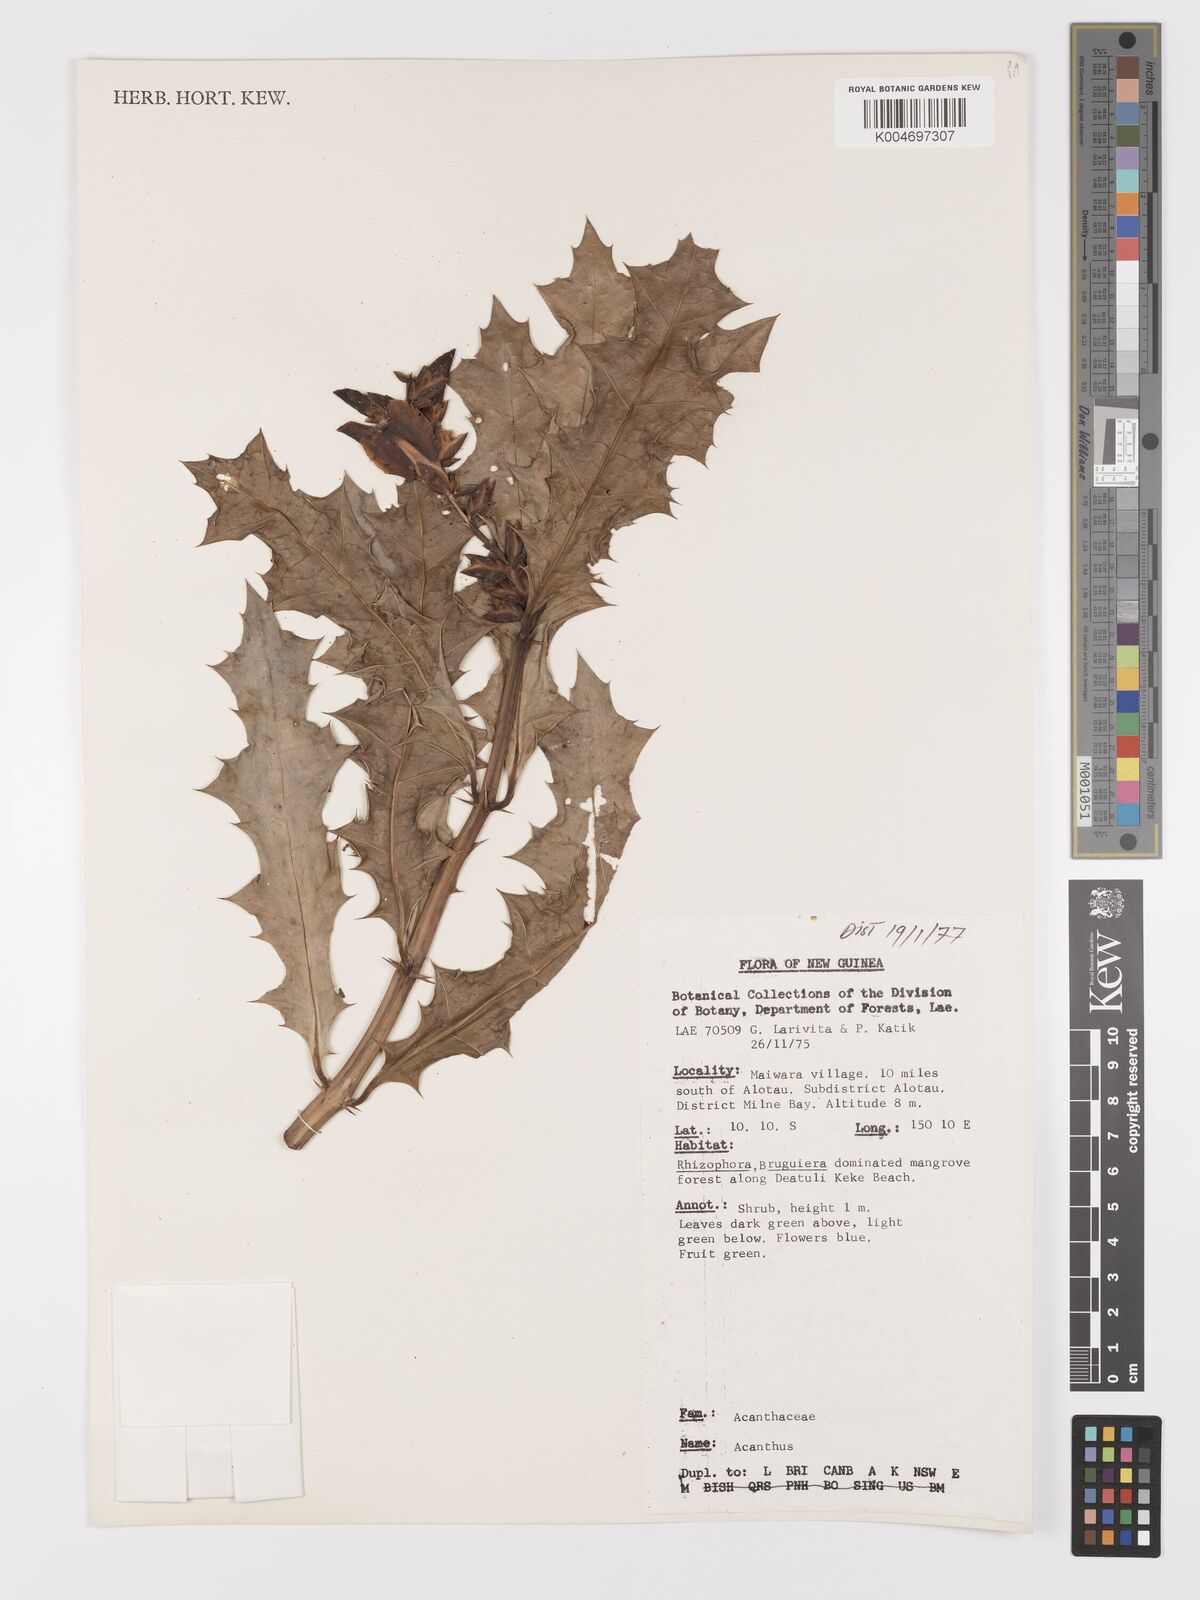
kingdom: Plantae
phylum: Tracheophyta
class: Magnoliopsida
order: Lamiales
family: Acanthaceae
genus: Acanthus
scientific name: Acanthus ilicifolius
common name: Holy mangrove
